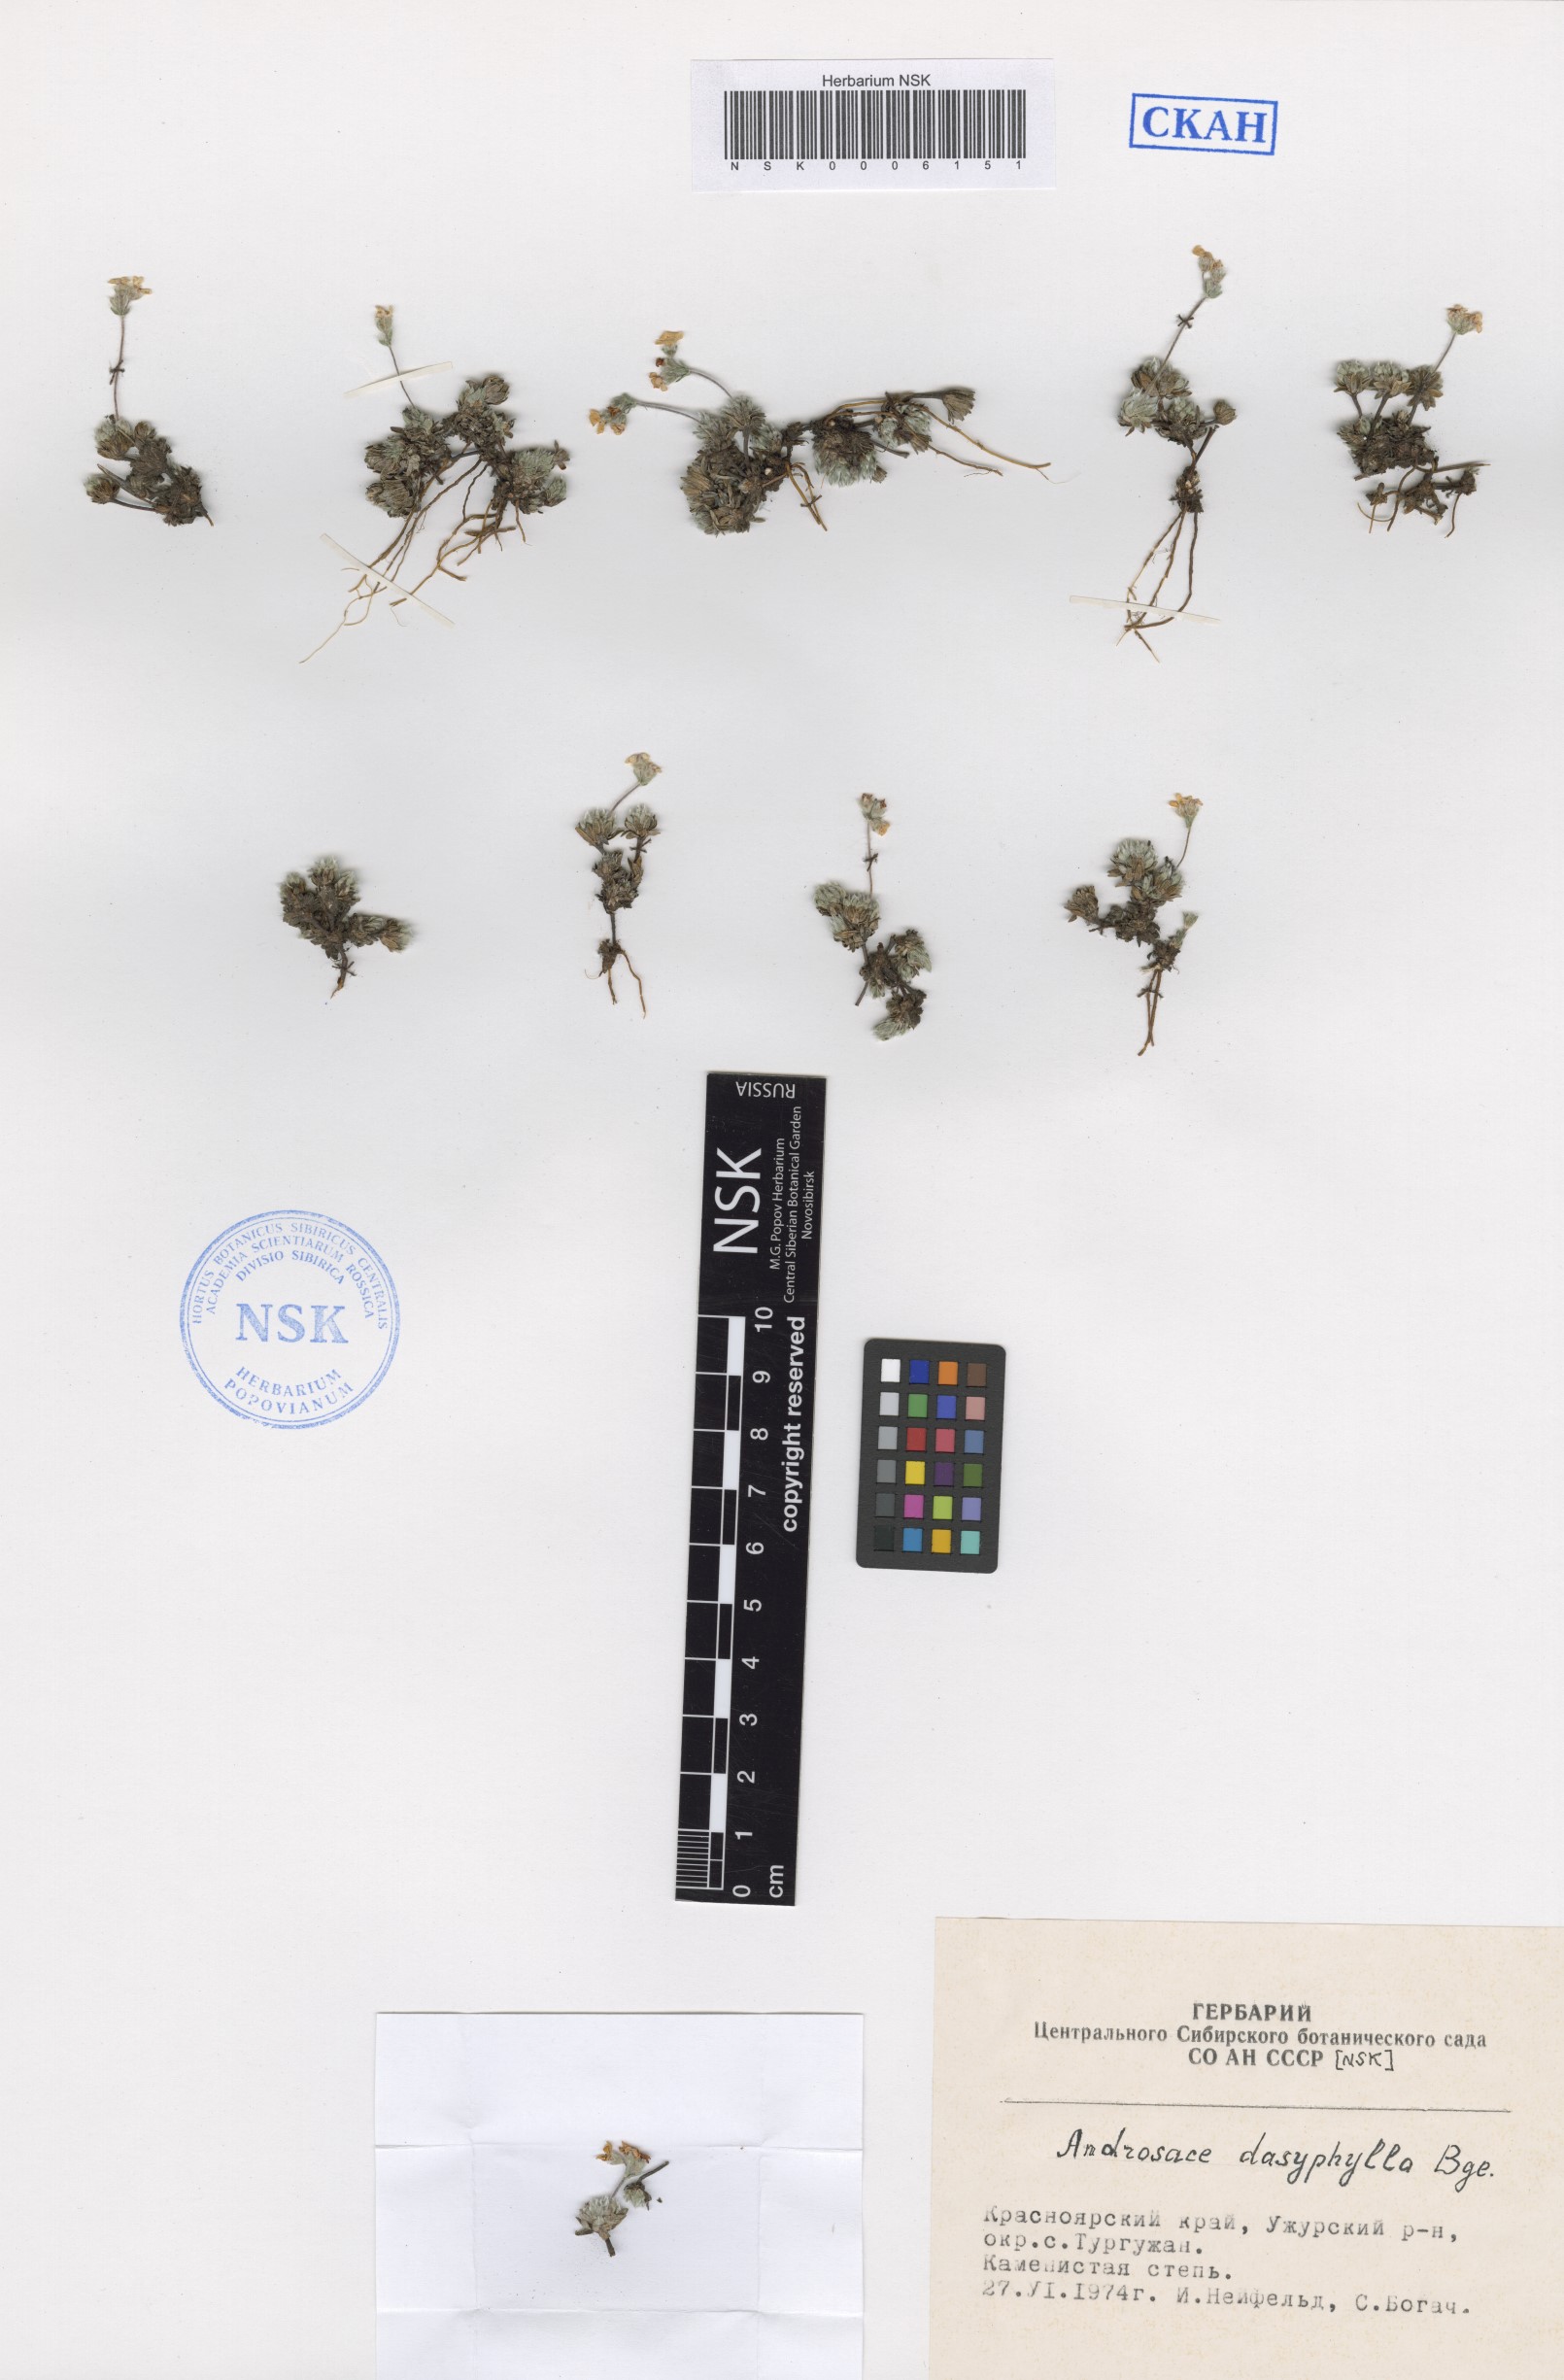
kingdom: Plantae
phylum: Tracheophyta
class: Magnoliopsida
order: Ericales
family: Primulaceae
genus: Androsace
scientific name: Androsace dasyphylla
